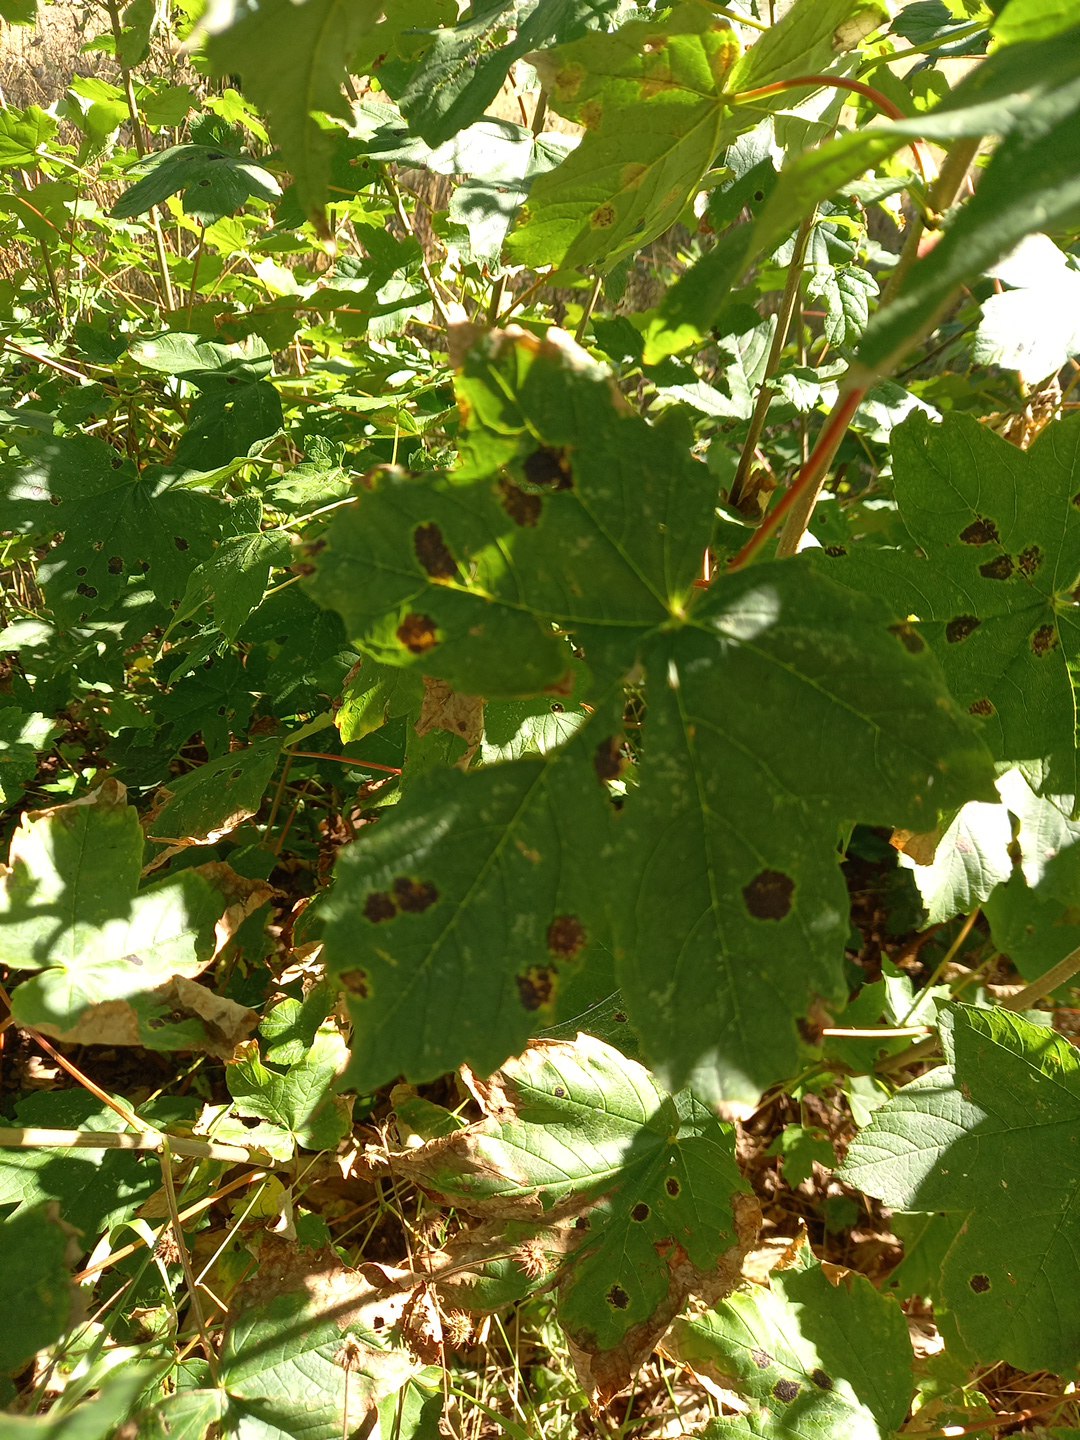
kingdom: Fungi
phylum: Ascomycota
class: Leotiomycetes
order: Rhytismatales
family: Rhytismataceae
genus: Rhytisma
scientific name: Rhytisma acerinum
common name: ahorn-rynkeplet
